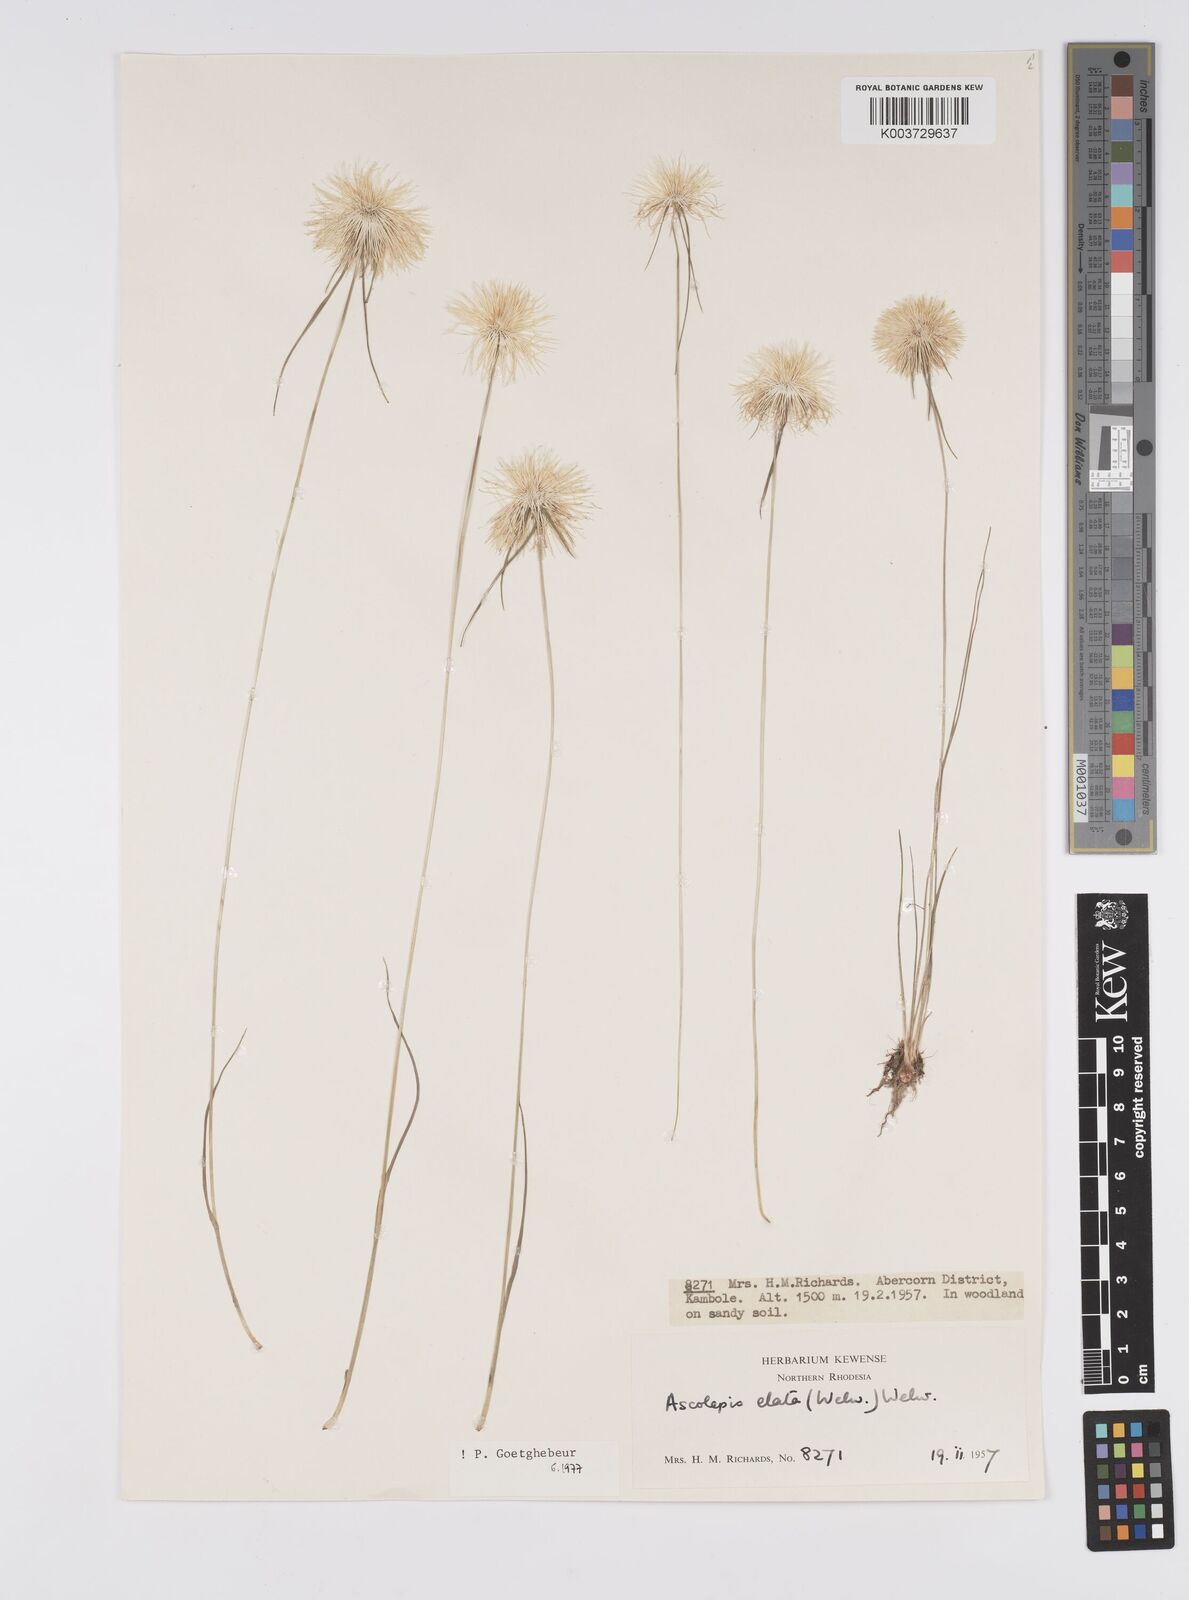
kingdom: Plantae
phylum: Tracheophyta
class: Liliopsida
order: Poales
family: Cyperaceae
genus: Cyperus
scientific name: Cyperus
